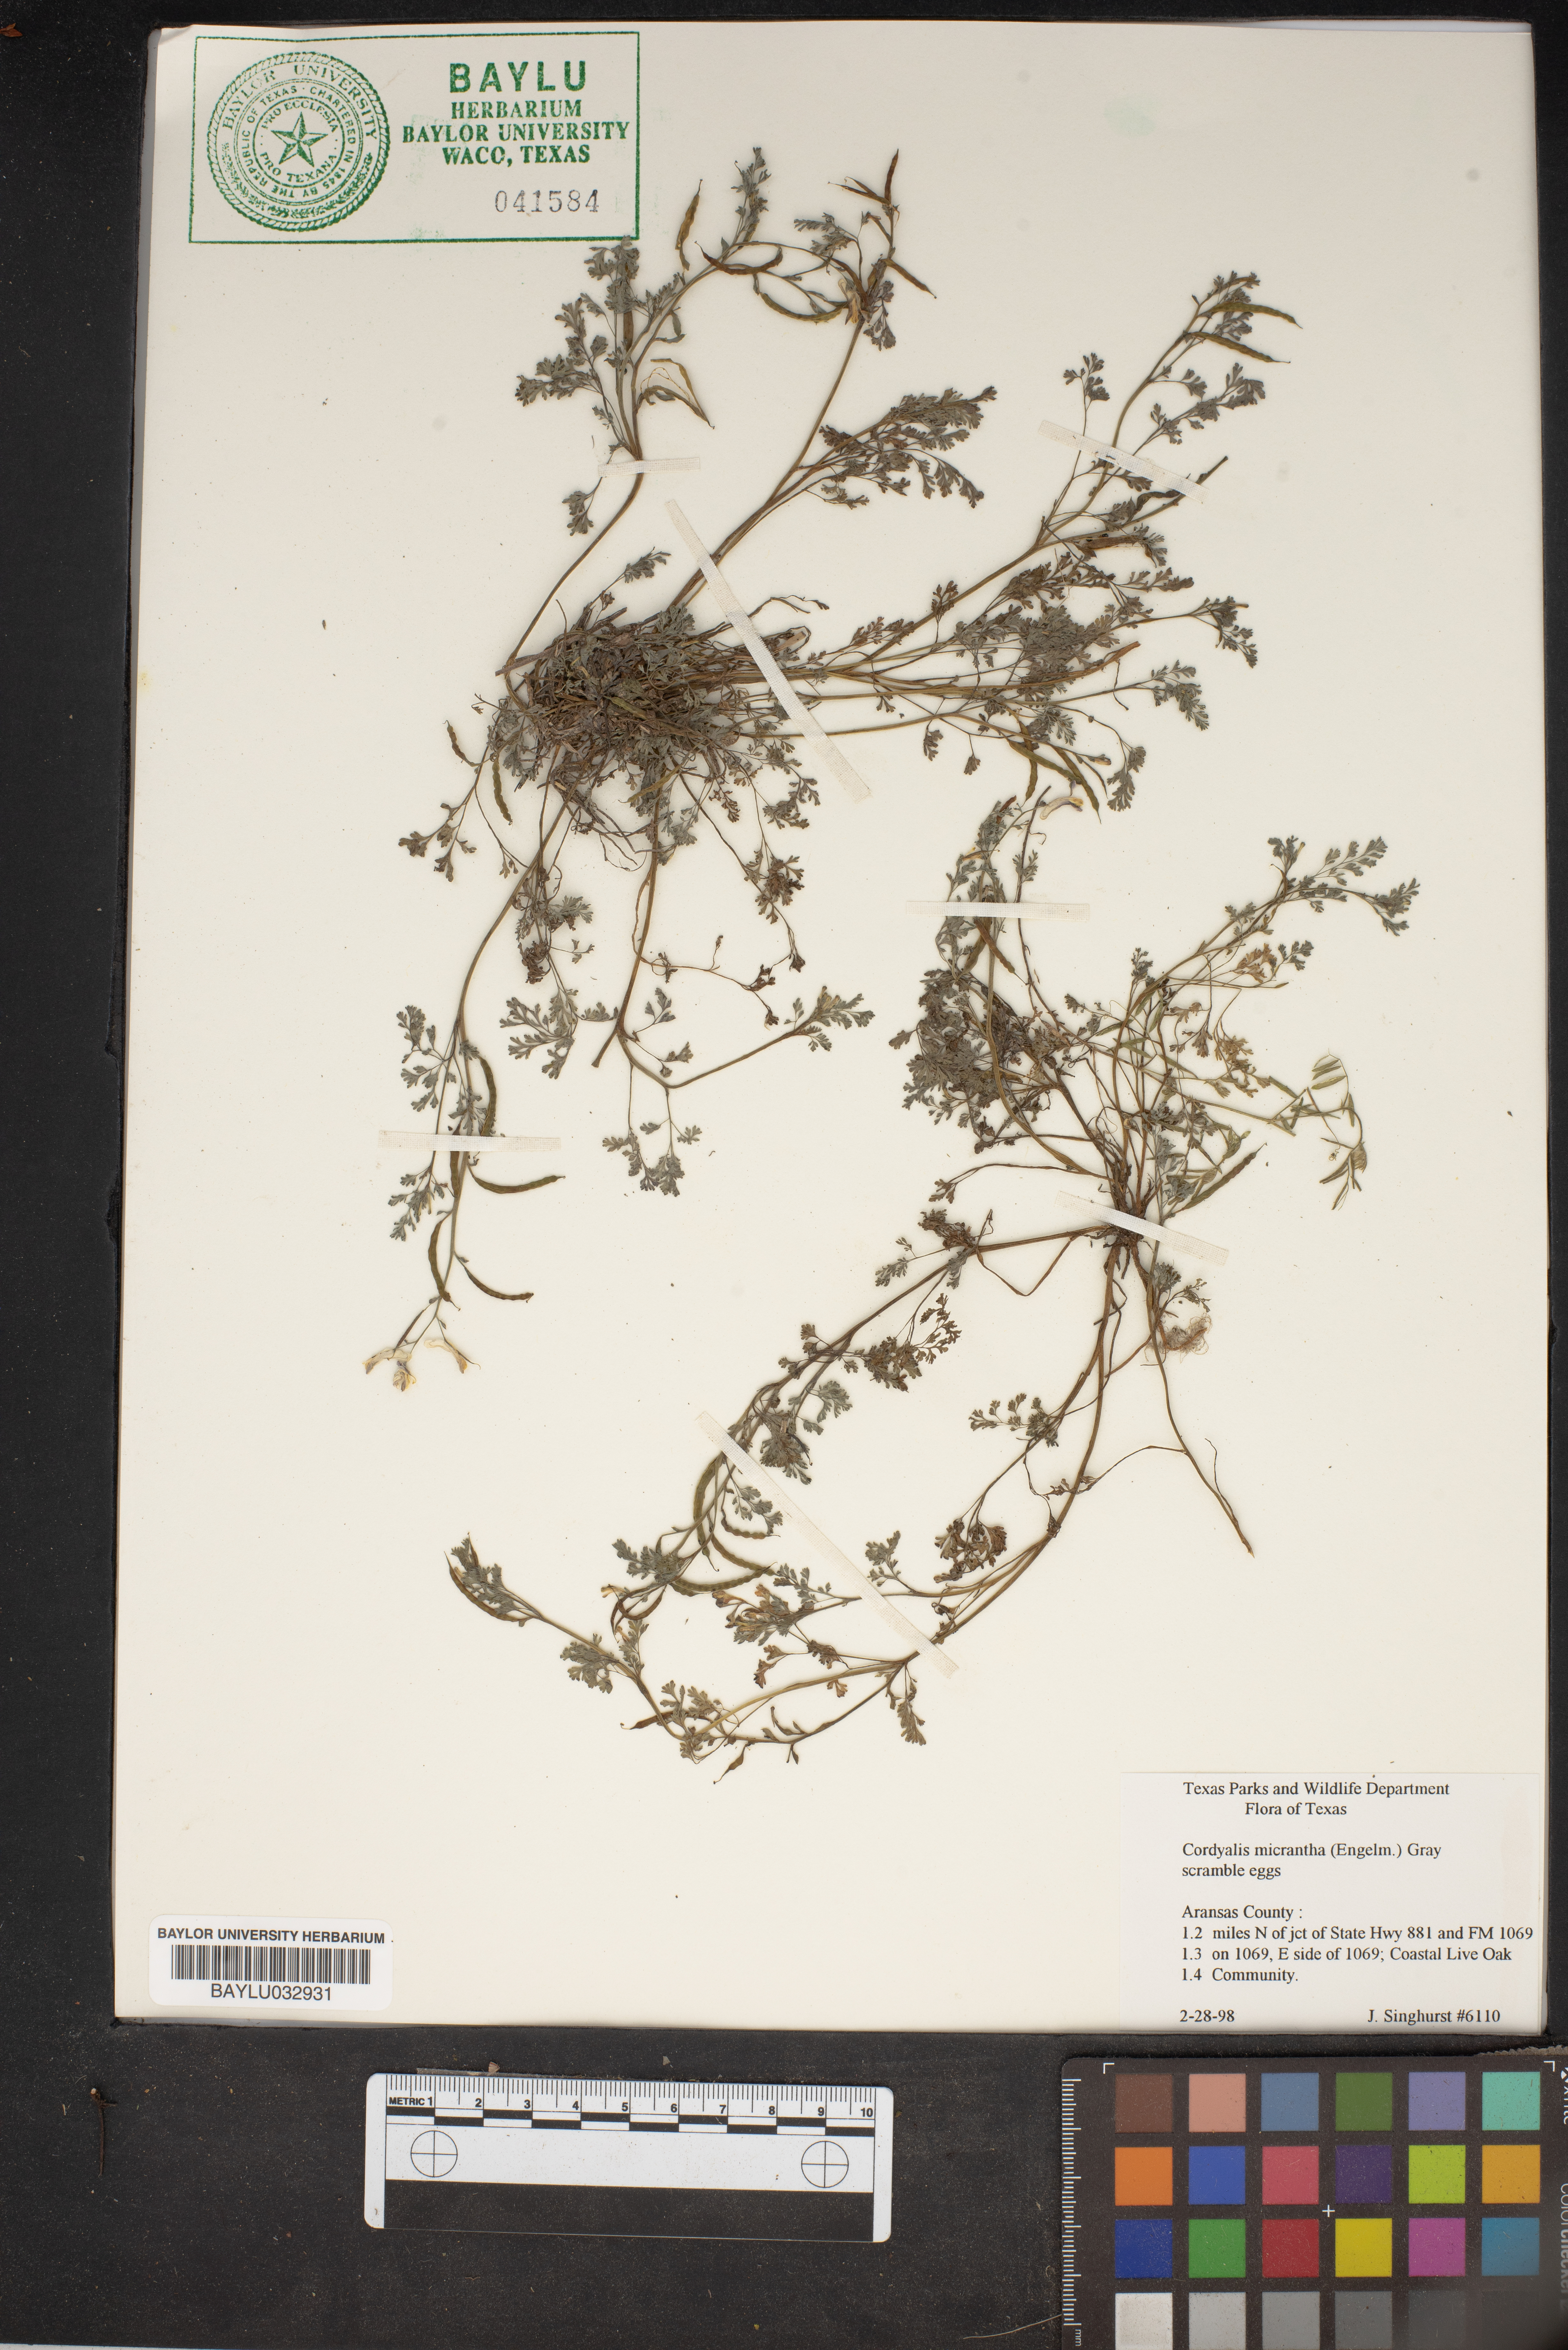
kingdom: Plantae
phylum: Tracheophyta
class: Magnoliopsida
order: Ranunculales
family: Papaveraceae
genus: Corydalis
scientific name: Corydalis micrantha
